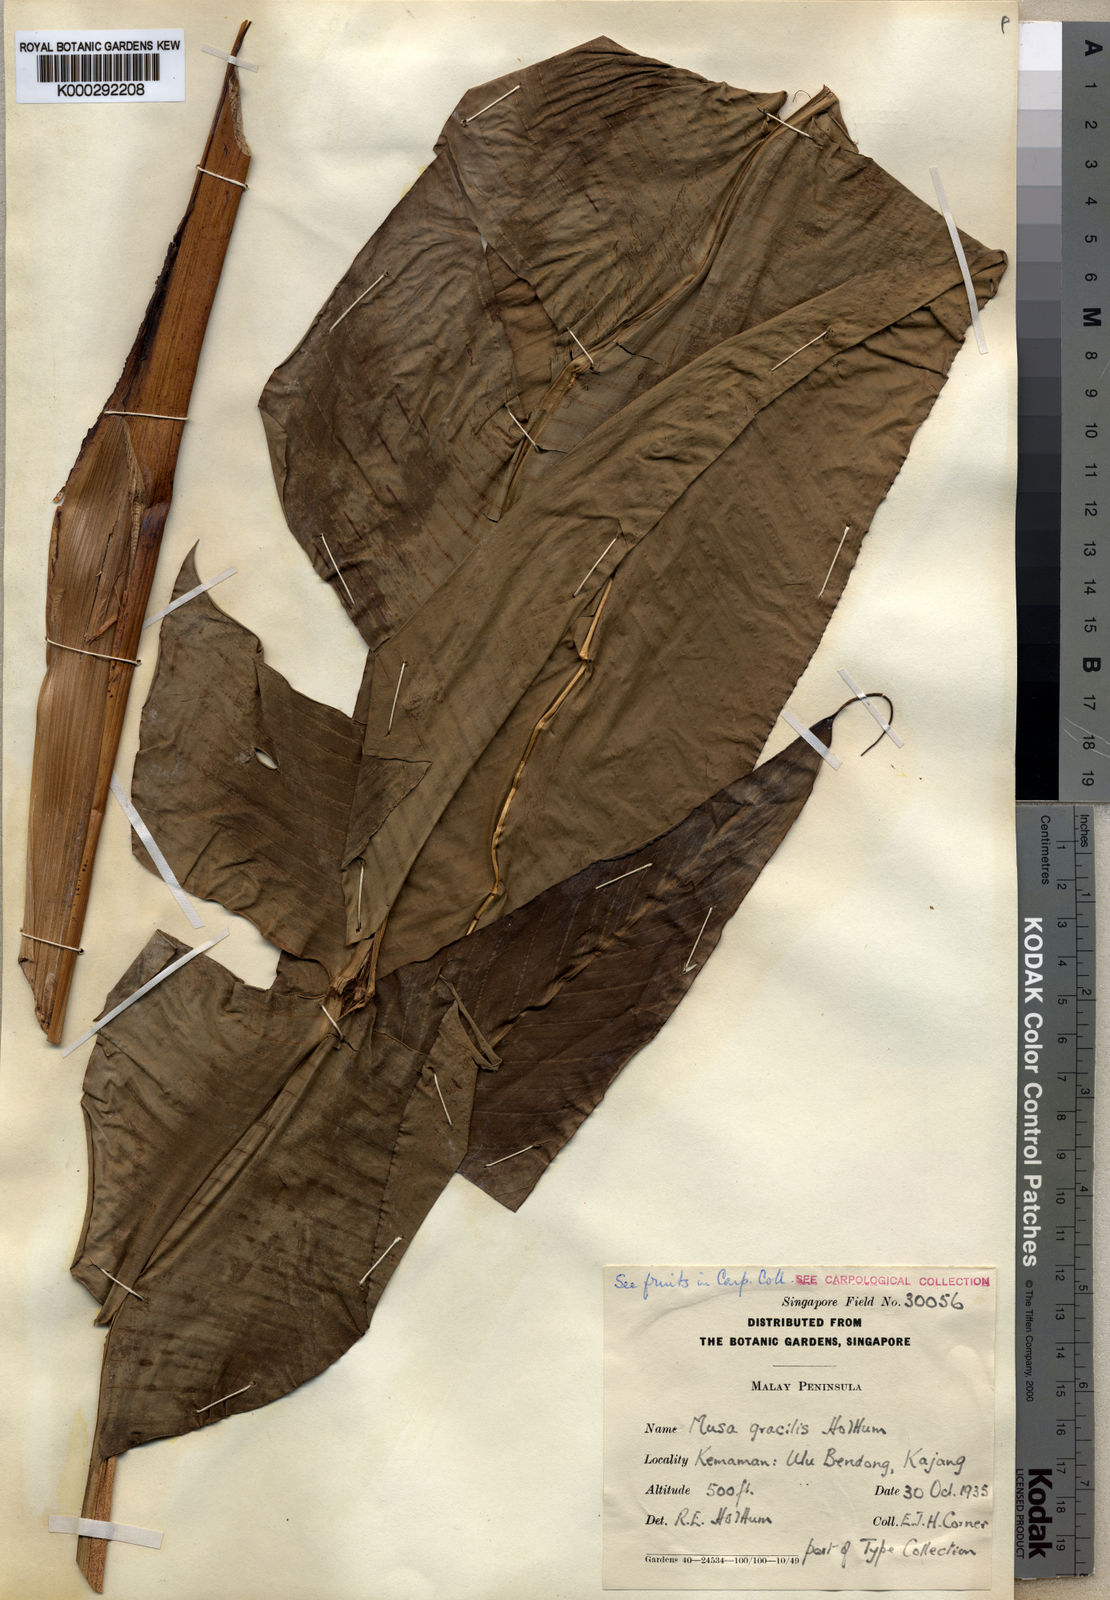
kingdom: Plantae
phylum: Tracheophyta
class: Liliopsida
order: Zingiberales
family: Musaceae
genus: Musa
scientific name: Musa gracilis
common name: Johore banana
